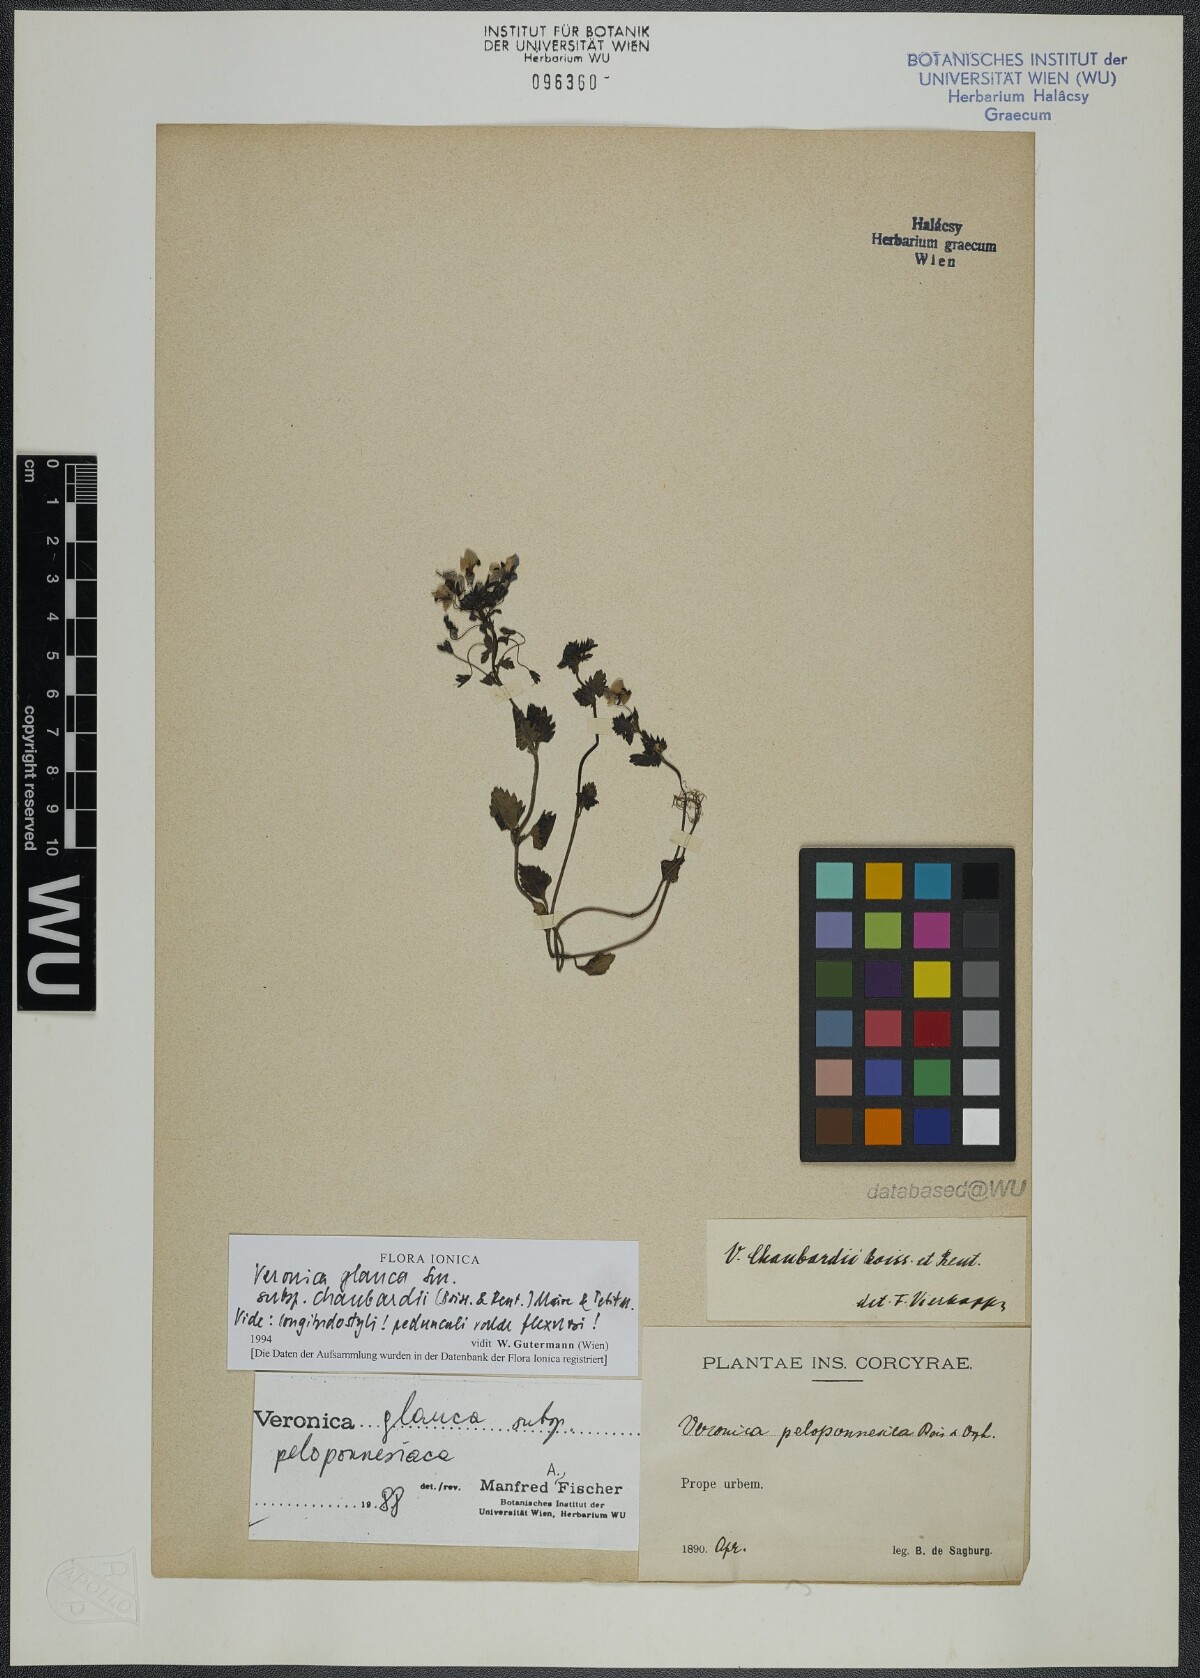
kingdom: Plantae
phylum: Tracheophyta
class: Magnoliopsida
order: Lamiales
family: Plantaginaceae
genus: Veronica
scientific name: Veronica glauca
